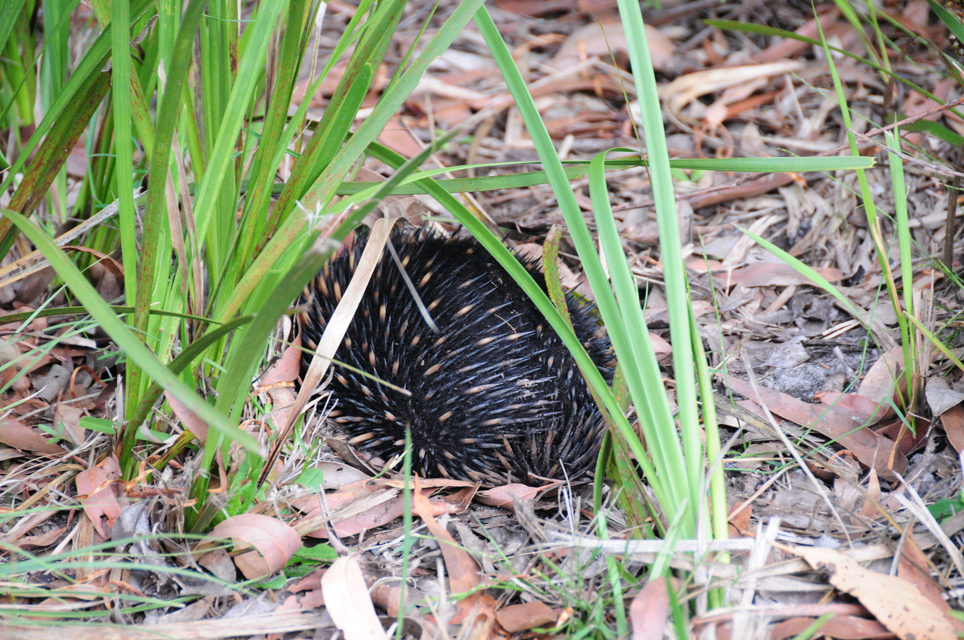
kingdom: Animalia
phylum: Chordata
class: Mammalia
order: Monotremata
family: Tachyglossidae
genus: Tachyglossus
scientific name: Tachyglossus aculeatus
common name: Short-beaked echidna
